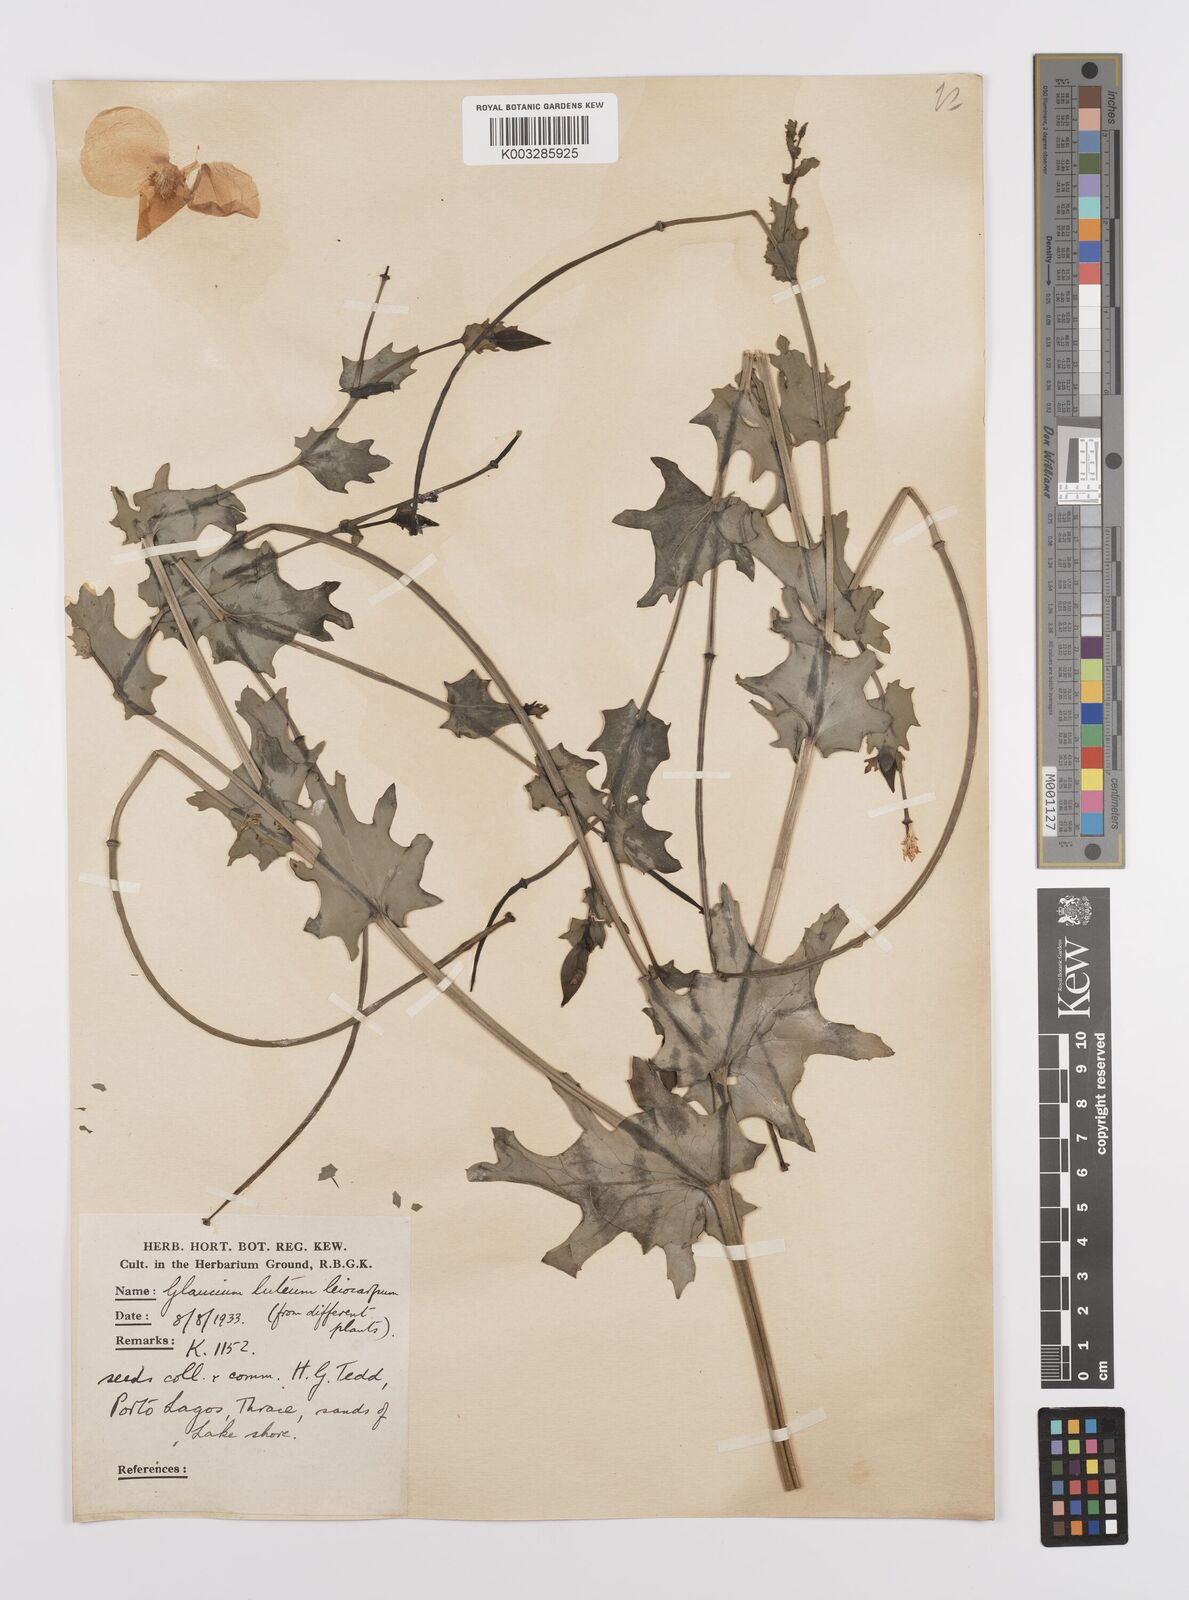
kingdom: Plantae
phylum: Tracheophyta
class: Magnoliopsida
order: Ranunculales
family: Papaveraceae
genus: Glaucium
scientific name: Glaucium flavum
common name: Yellow horned-poppy
